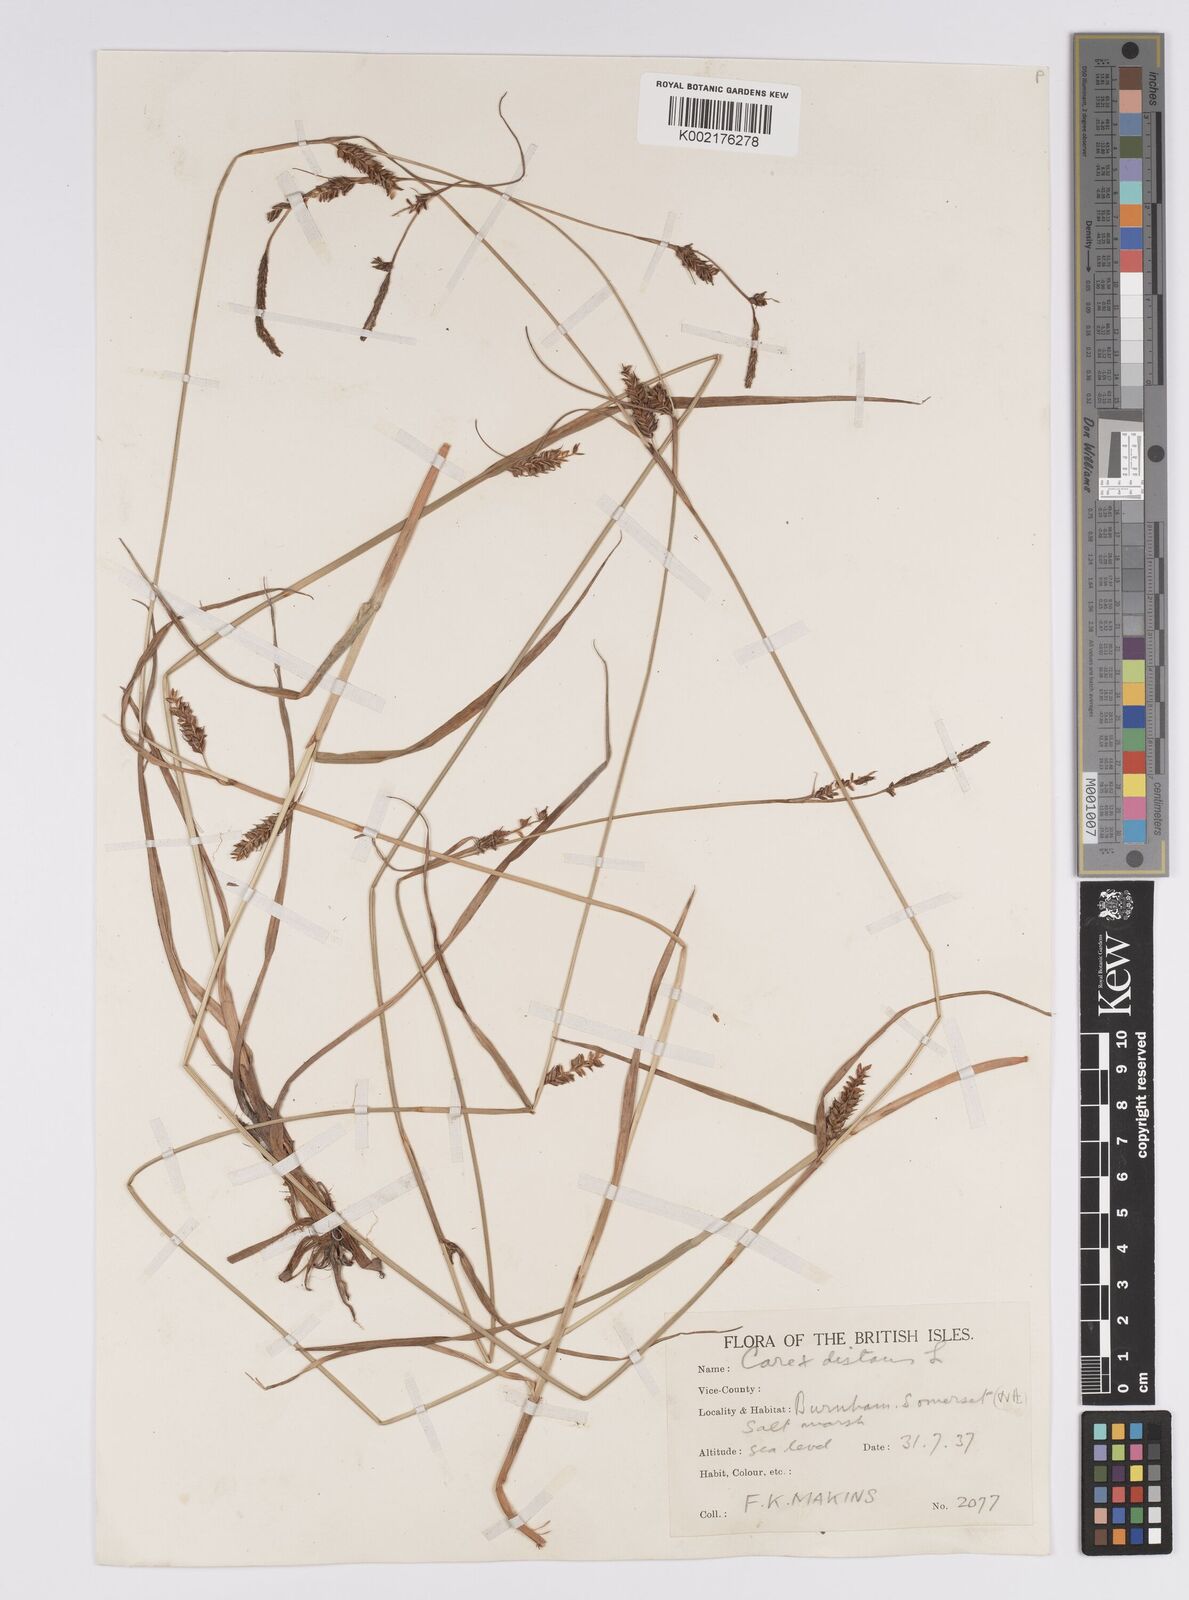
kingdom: Plantae
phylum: Tracheophyta
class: Liliopsida
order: Poales
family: Cyperaceae
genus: Carex
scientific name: Carex distans
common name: Distant sedge
